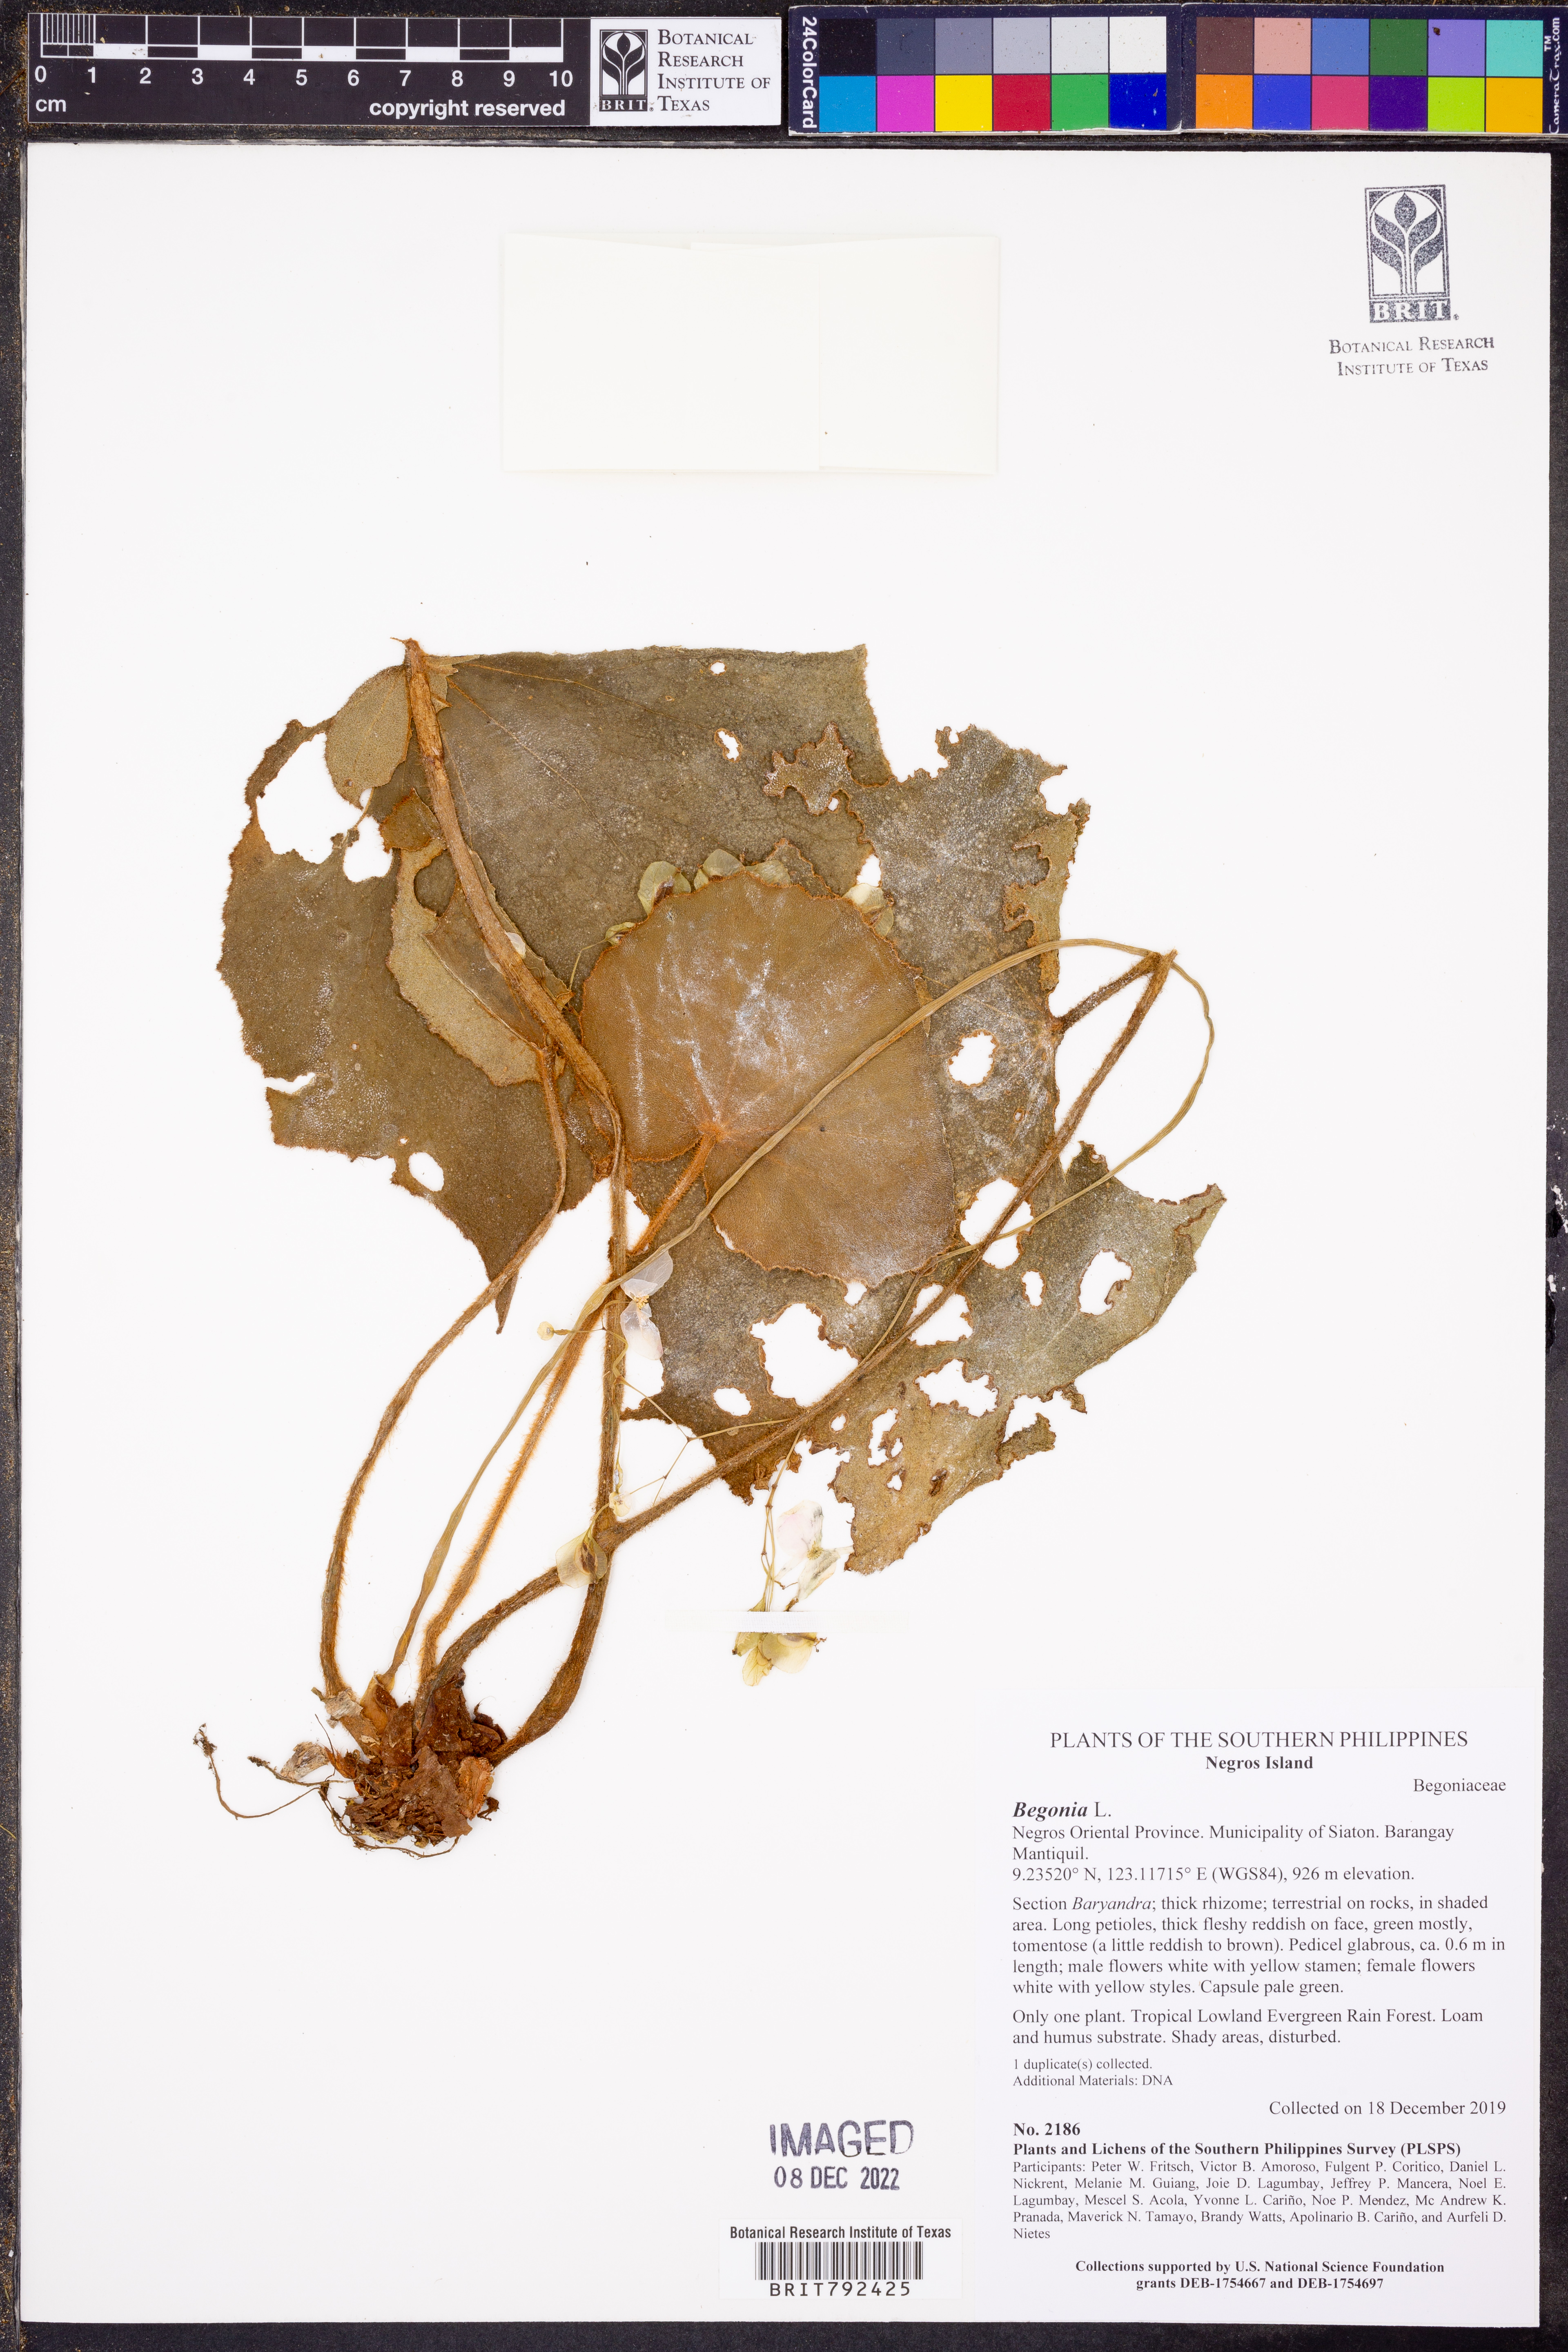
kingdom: Plantae
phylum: Tracheophyta
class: Magnoliopsida
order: Cucurbitales
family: Begoniaceae
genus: Begonia
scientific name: Begonia
